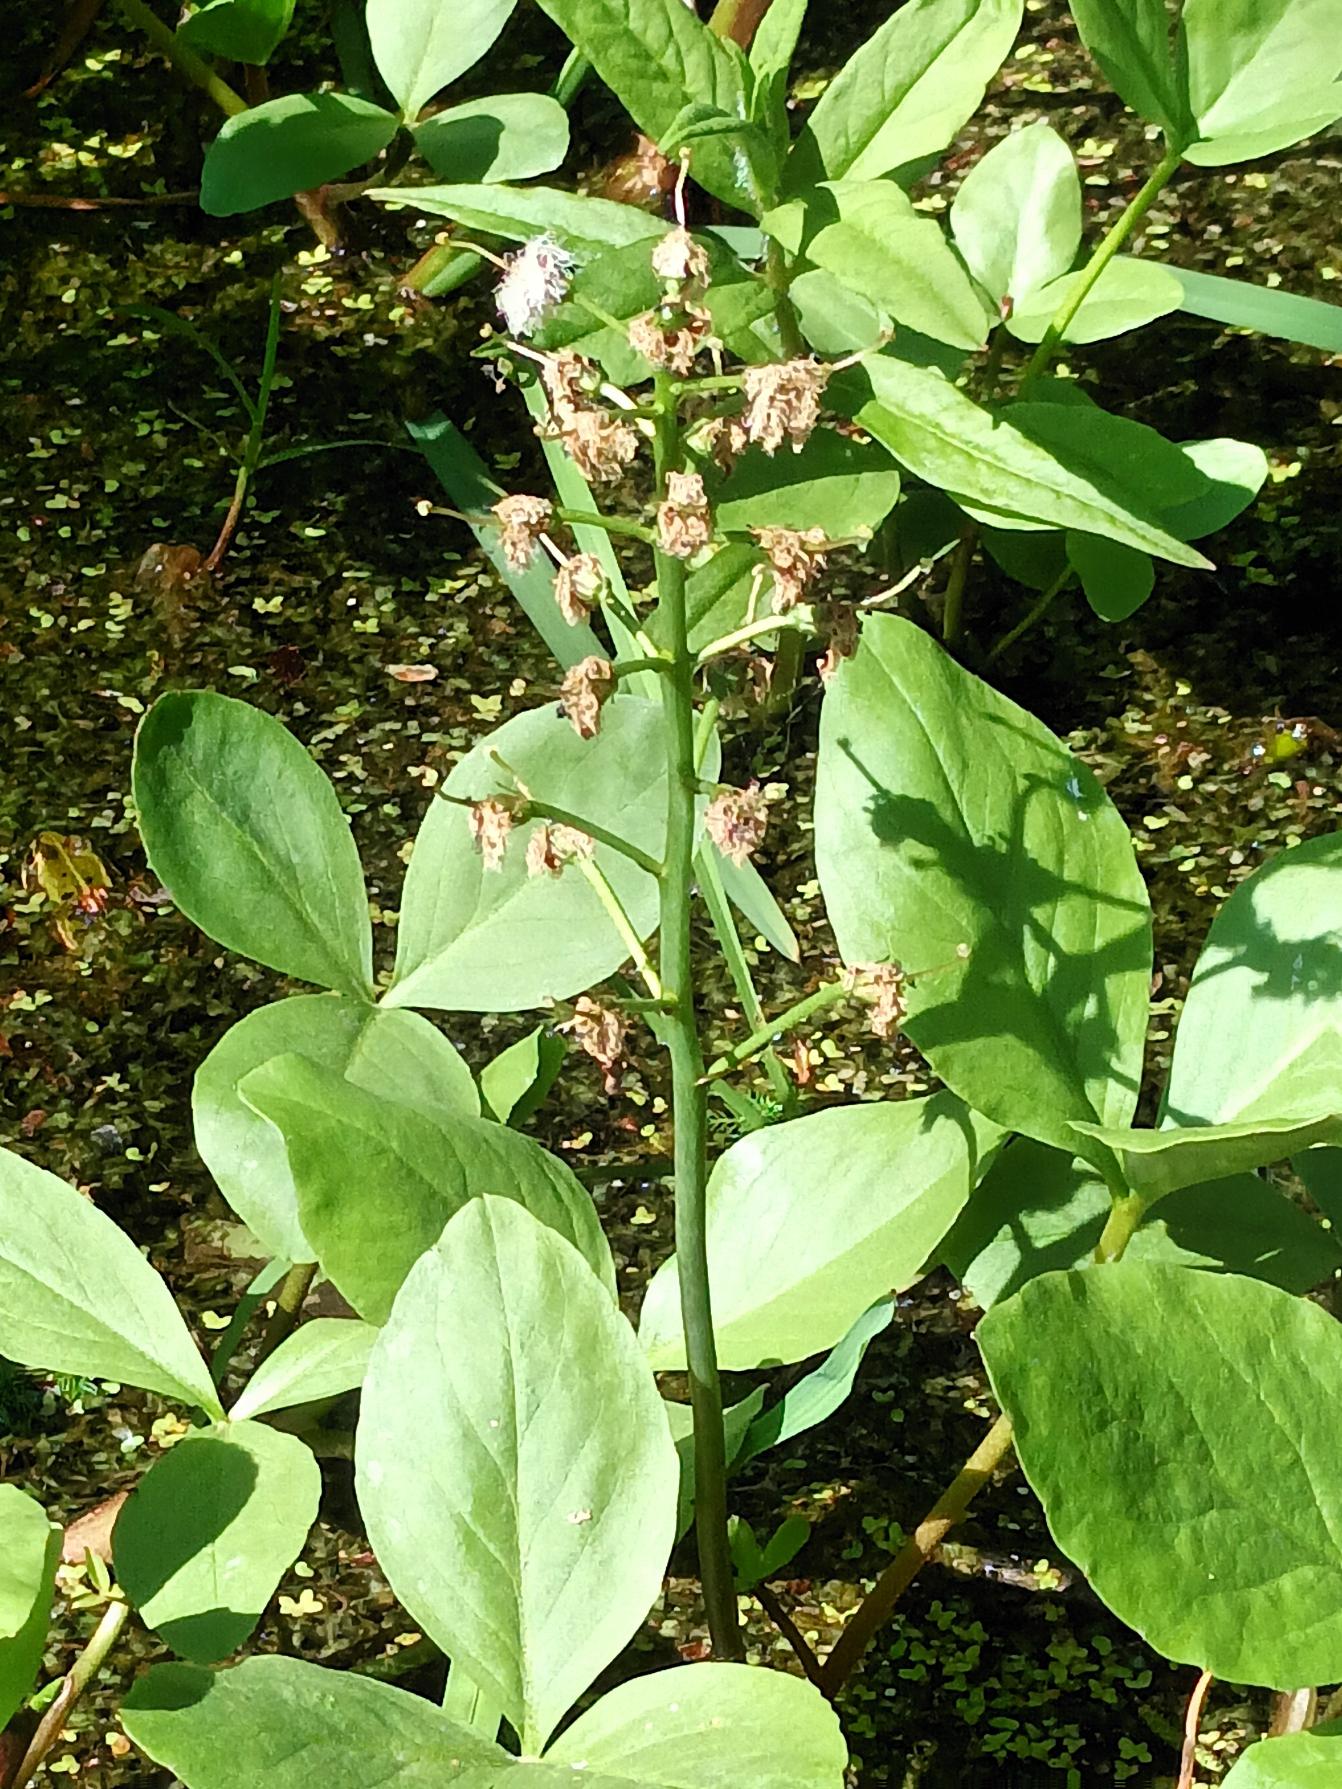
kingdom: Plantae
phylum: Tracheophyta
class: Magnoliopsida
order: Asterales
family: Menyanthaceae
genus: Menyanthes
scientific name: Menyanthes trifoliata
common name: Bukkeblad
